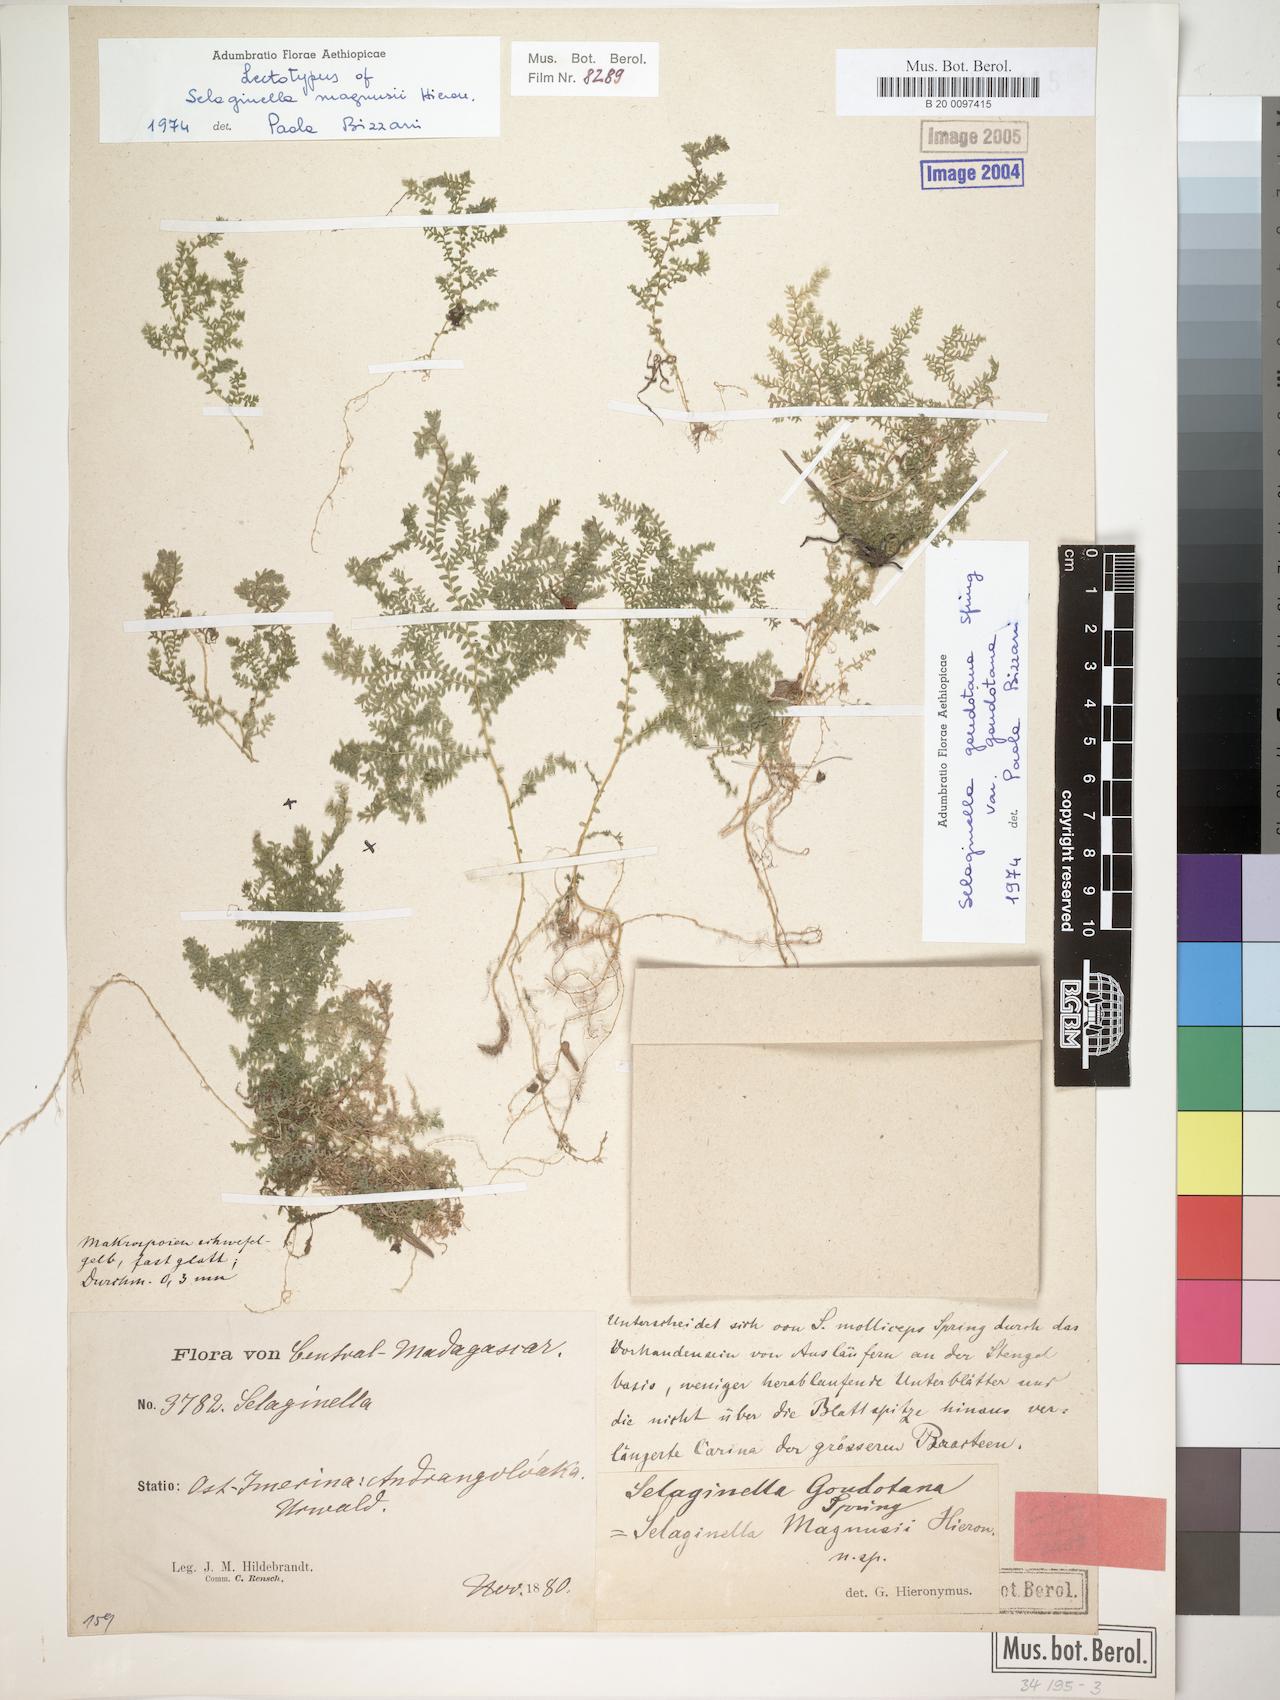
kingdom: Plantae
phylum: Tracheophyta
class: Lycopodiopsida
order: Selaginellales
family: Selaginellaceae
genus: Selaginella
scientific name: Selaginella goudotiana
